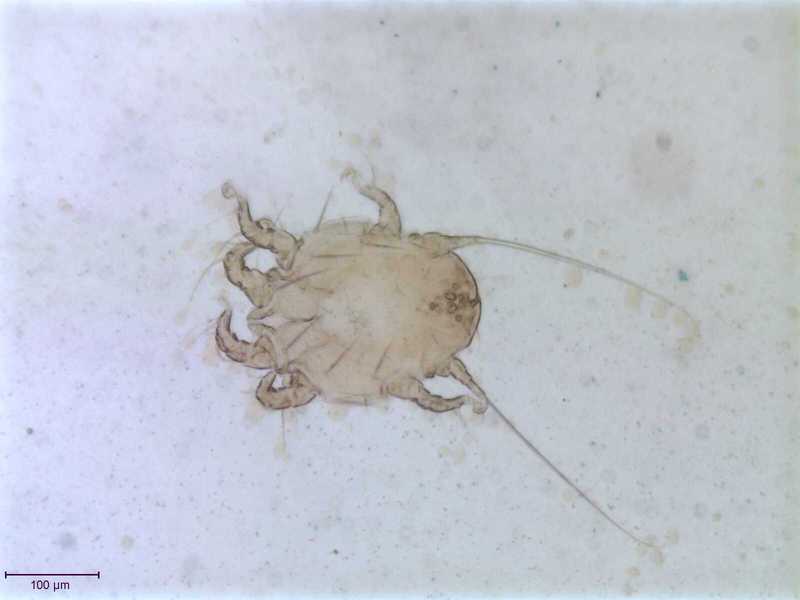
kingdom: Animalia
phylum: Arthropoda
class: Arachnida
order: Sarcoptiformes
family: Chaetodactylidae
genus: Sennertia
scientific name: Sennertia caffra
